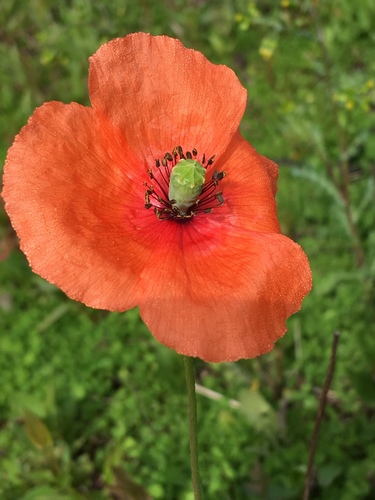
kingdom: Plantae
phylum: Tracheophyta
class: Magnoliopsida
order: Ranunculales
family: Papaveraceae
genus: Papaver
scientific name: Papaver rhoeas
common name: Corn poppy
